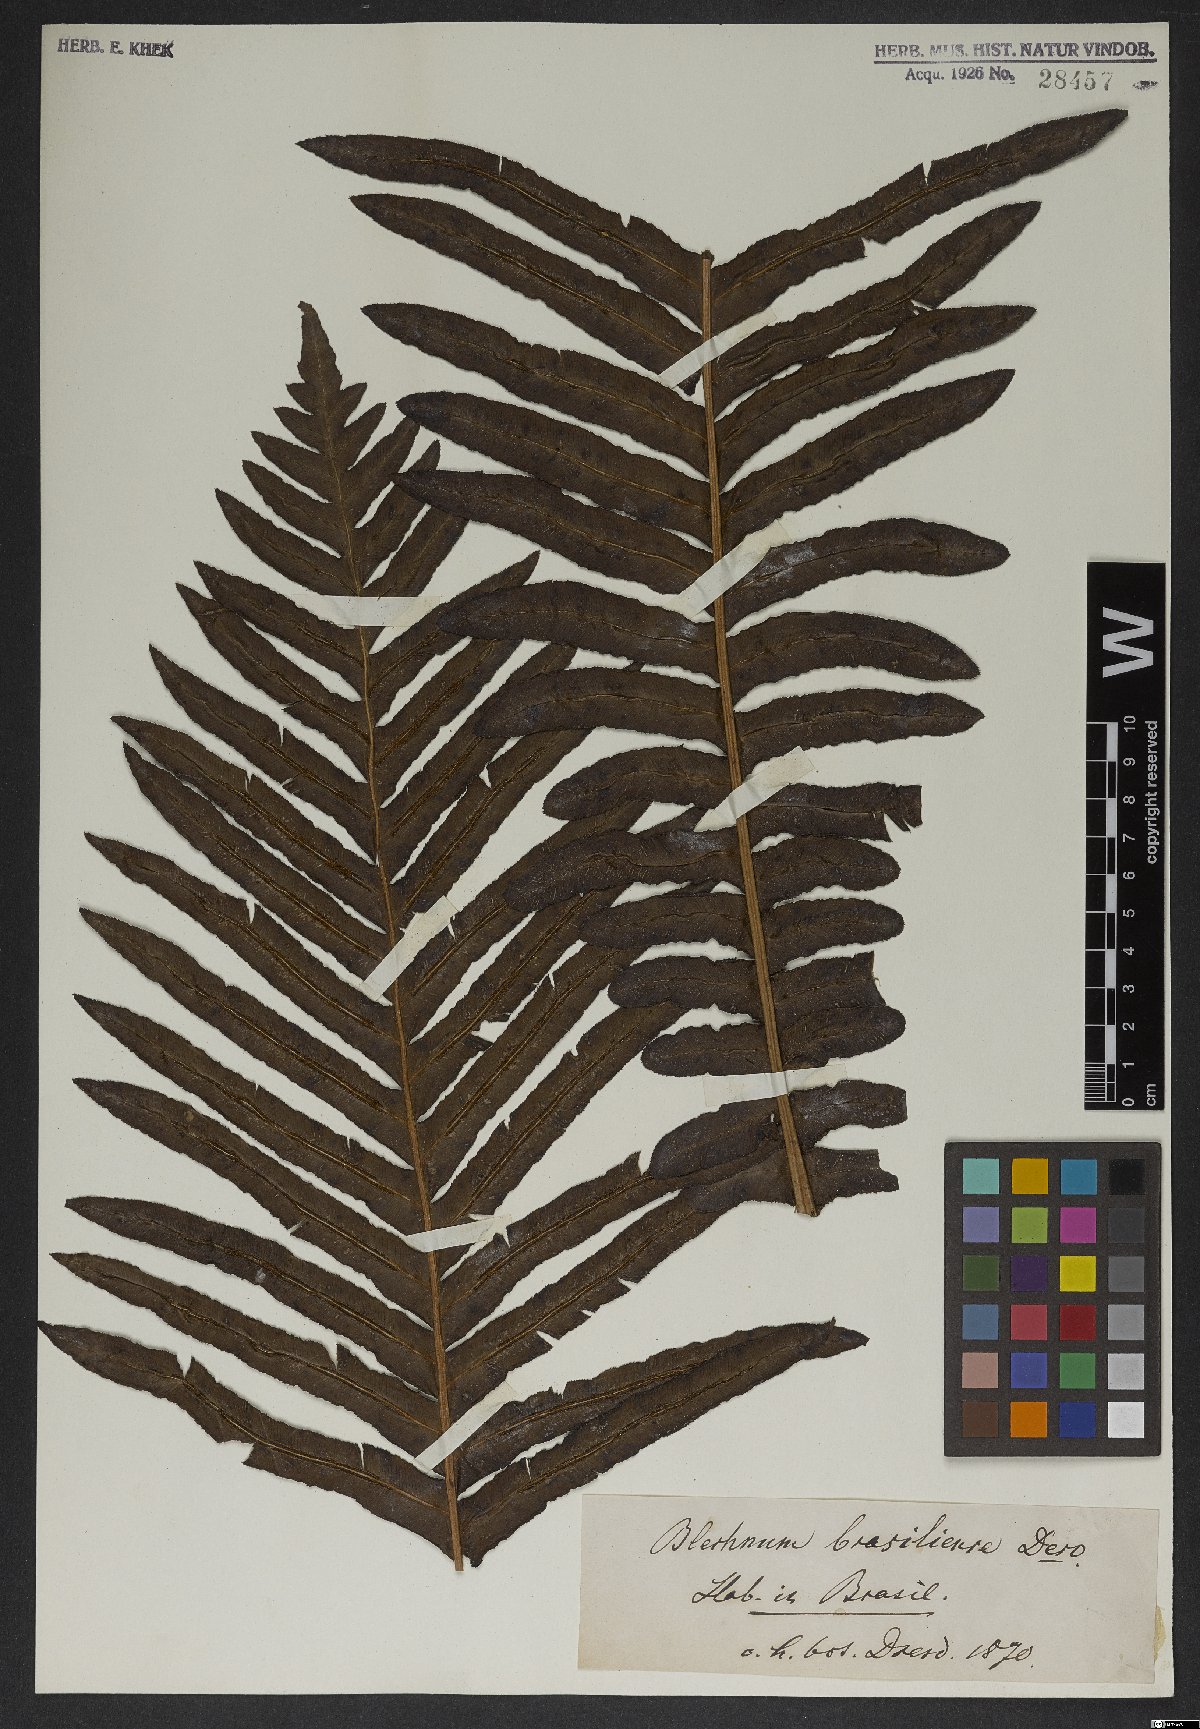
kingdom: Plantae
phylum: Tracheophyta
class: Polypodiopsida
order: Polypodiales
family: Blechnaceae
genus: Neoblechnum
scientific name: Neoblechnum brasiliense
